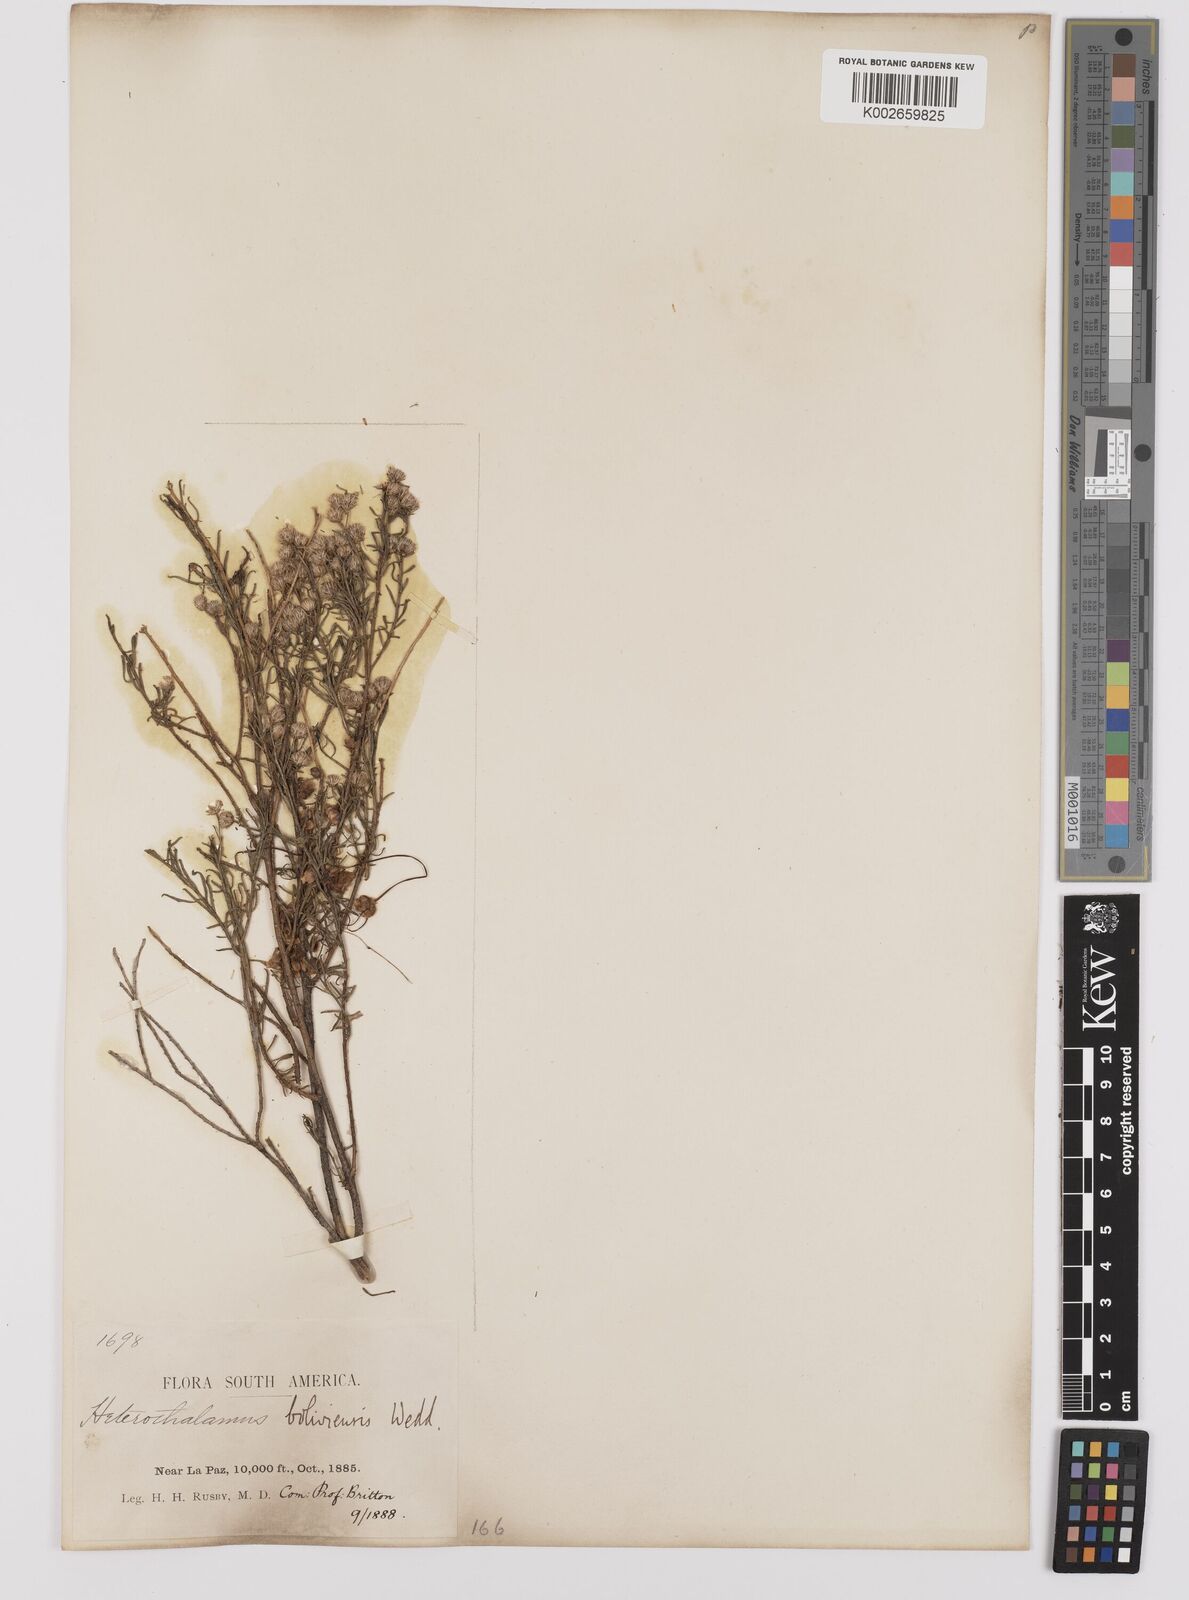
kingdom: Plantae
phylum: Tracheophyta
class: Magnoliopsida
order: Asterales
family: Asteraceae
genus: Baccharis
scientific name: Baccharis bolivensis
